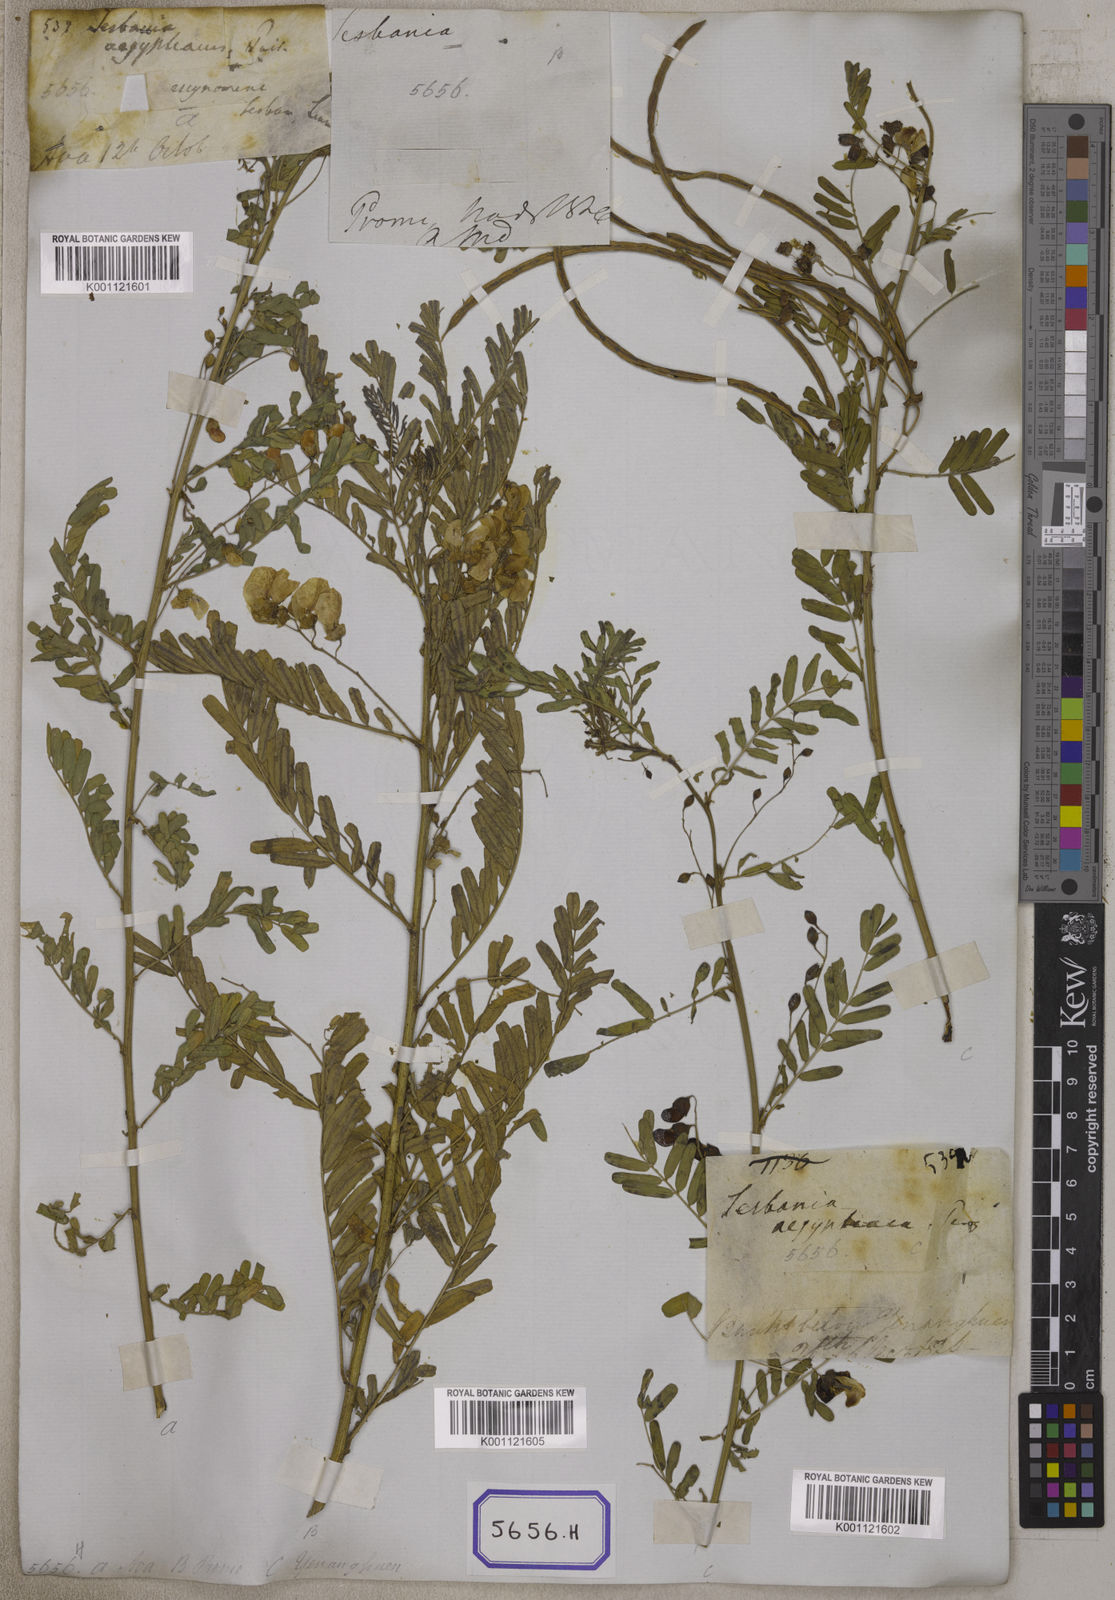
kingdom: Plantae
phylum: Tracheophyta
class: Magnoliopsida
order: Fabales
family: Fabaceae
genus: Sesbania
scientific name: Sesbania
